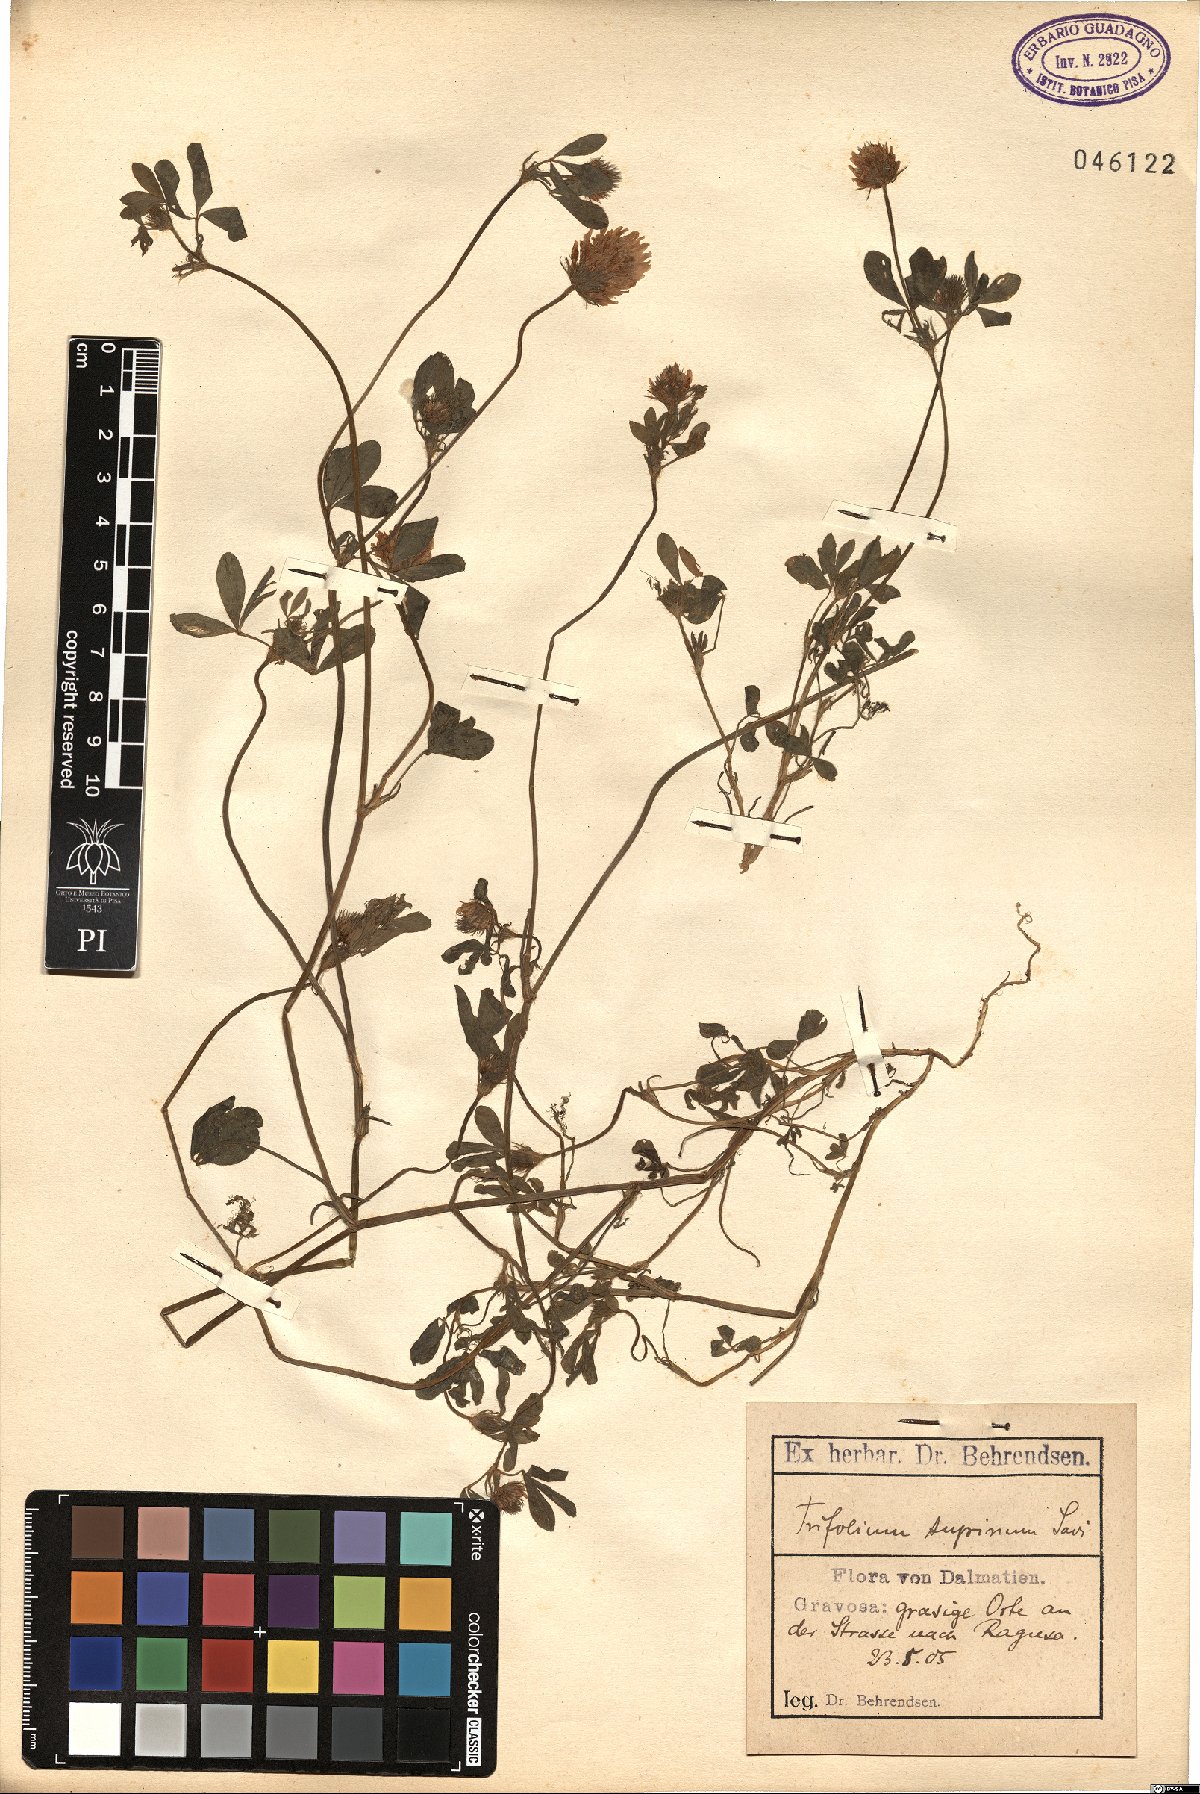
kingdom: Plantae
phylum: Tracheophyta
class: Magnoliopsida
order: Fabales
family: Fabaceae
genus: Trifolium
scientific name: Trifolium echinatum
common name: Hedgehog clover
